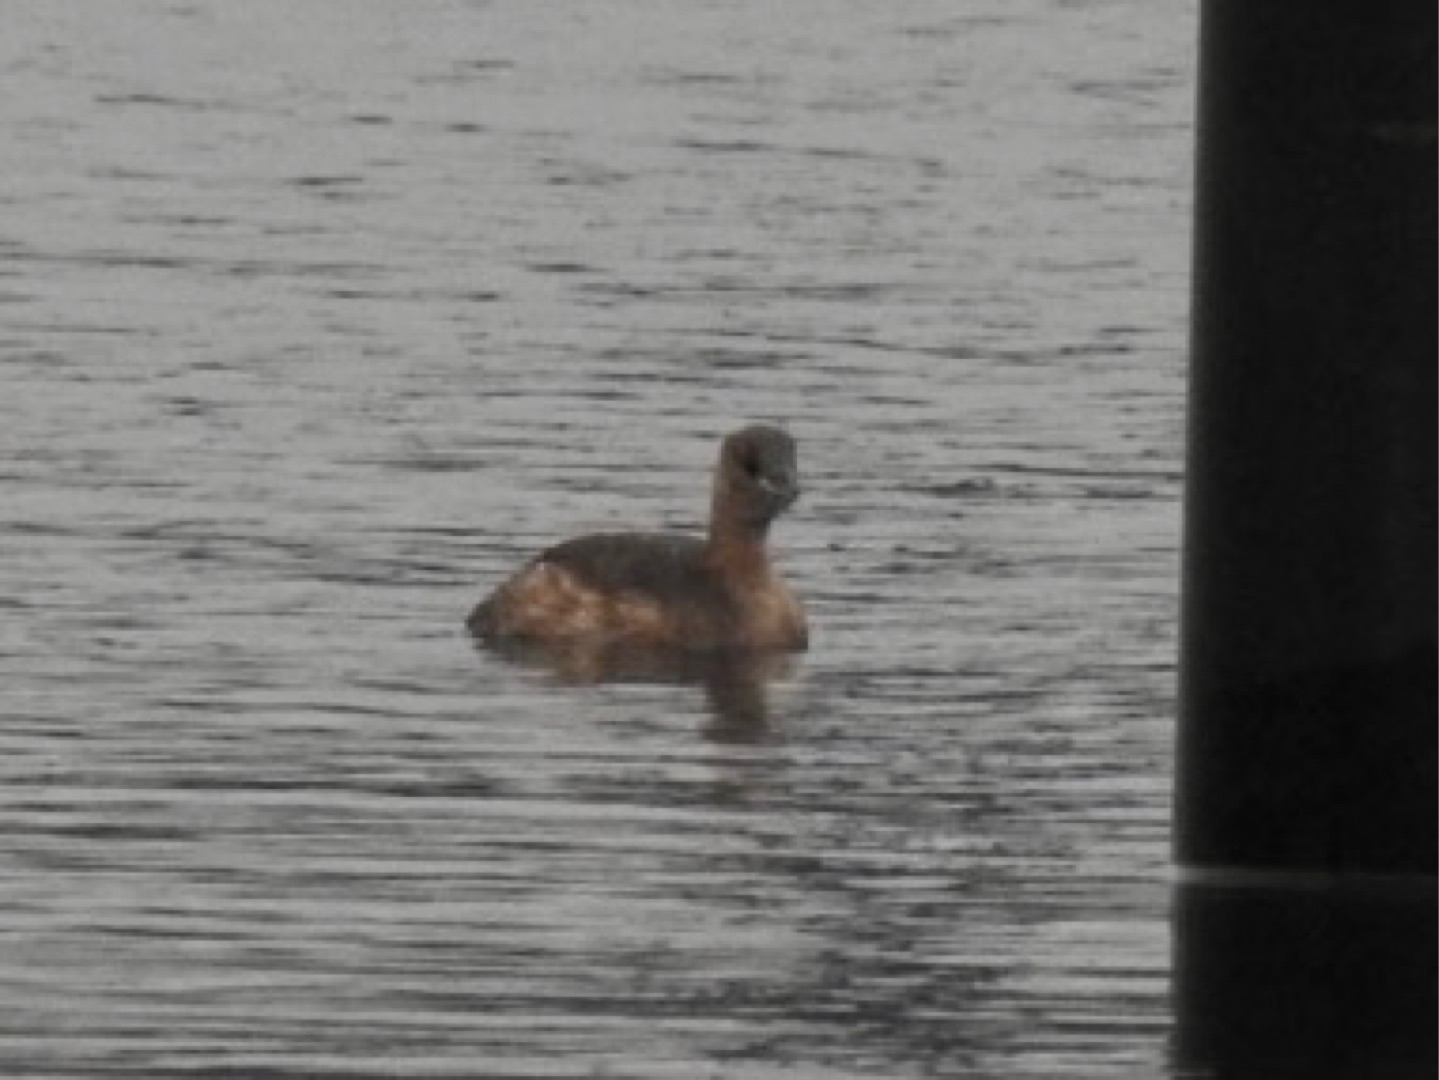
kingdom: Animalia
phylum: Chordata
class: Aves
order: Podicipediformes
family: Podicipedidae
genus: Tachybaptus
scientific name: Tachybaptus ruficollis
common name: Lille lappedykker
